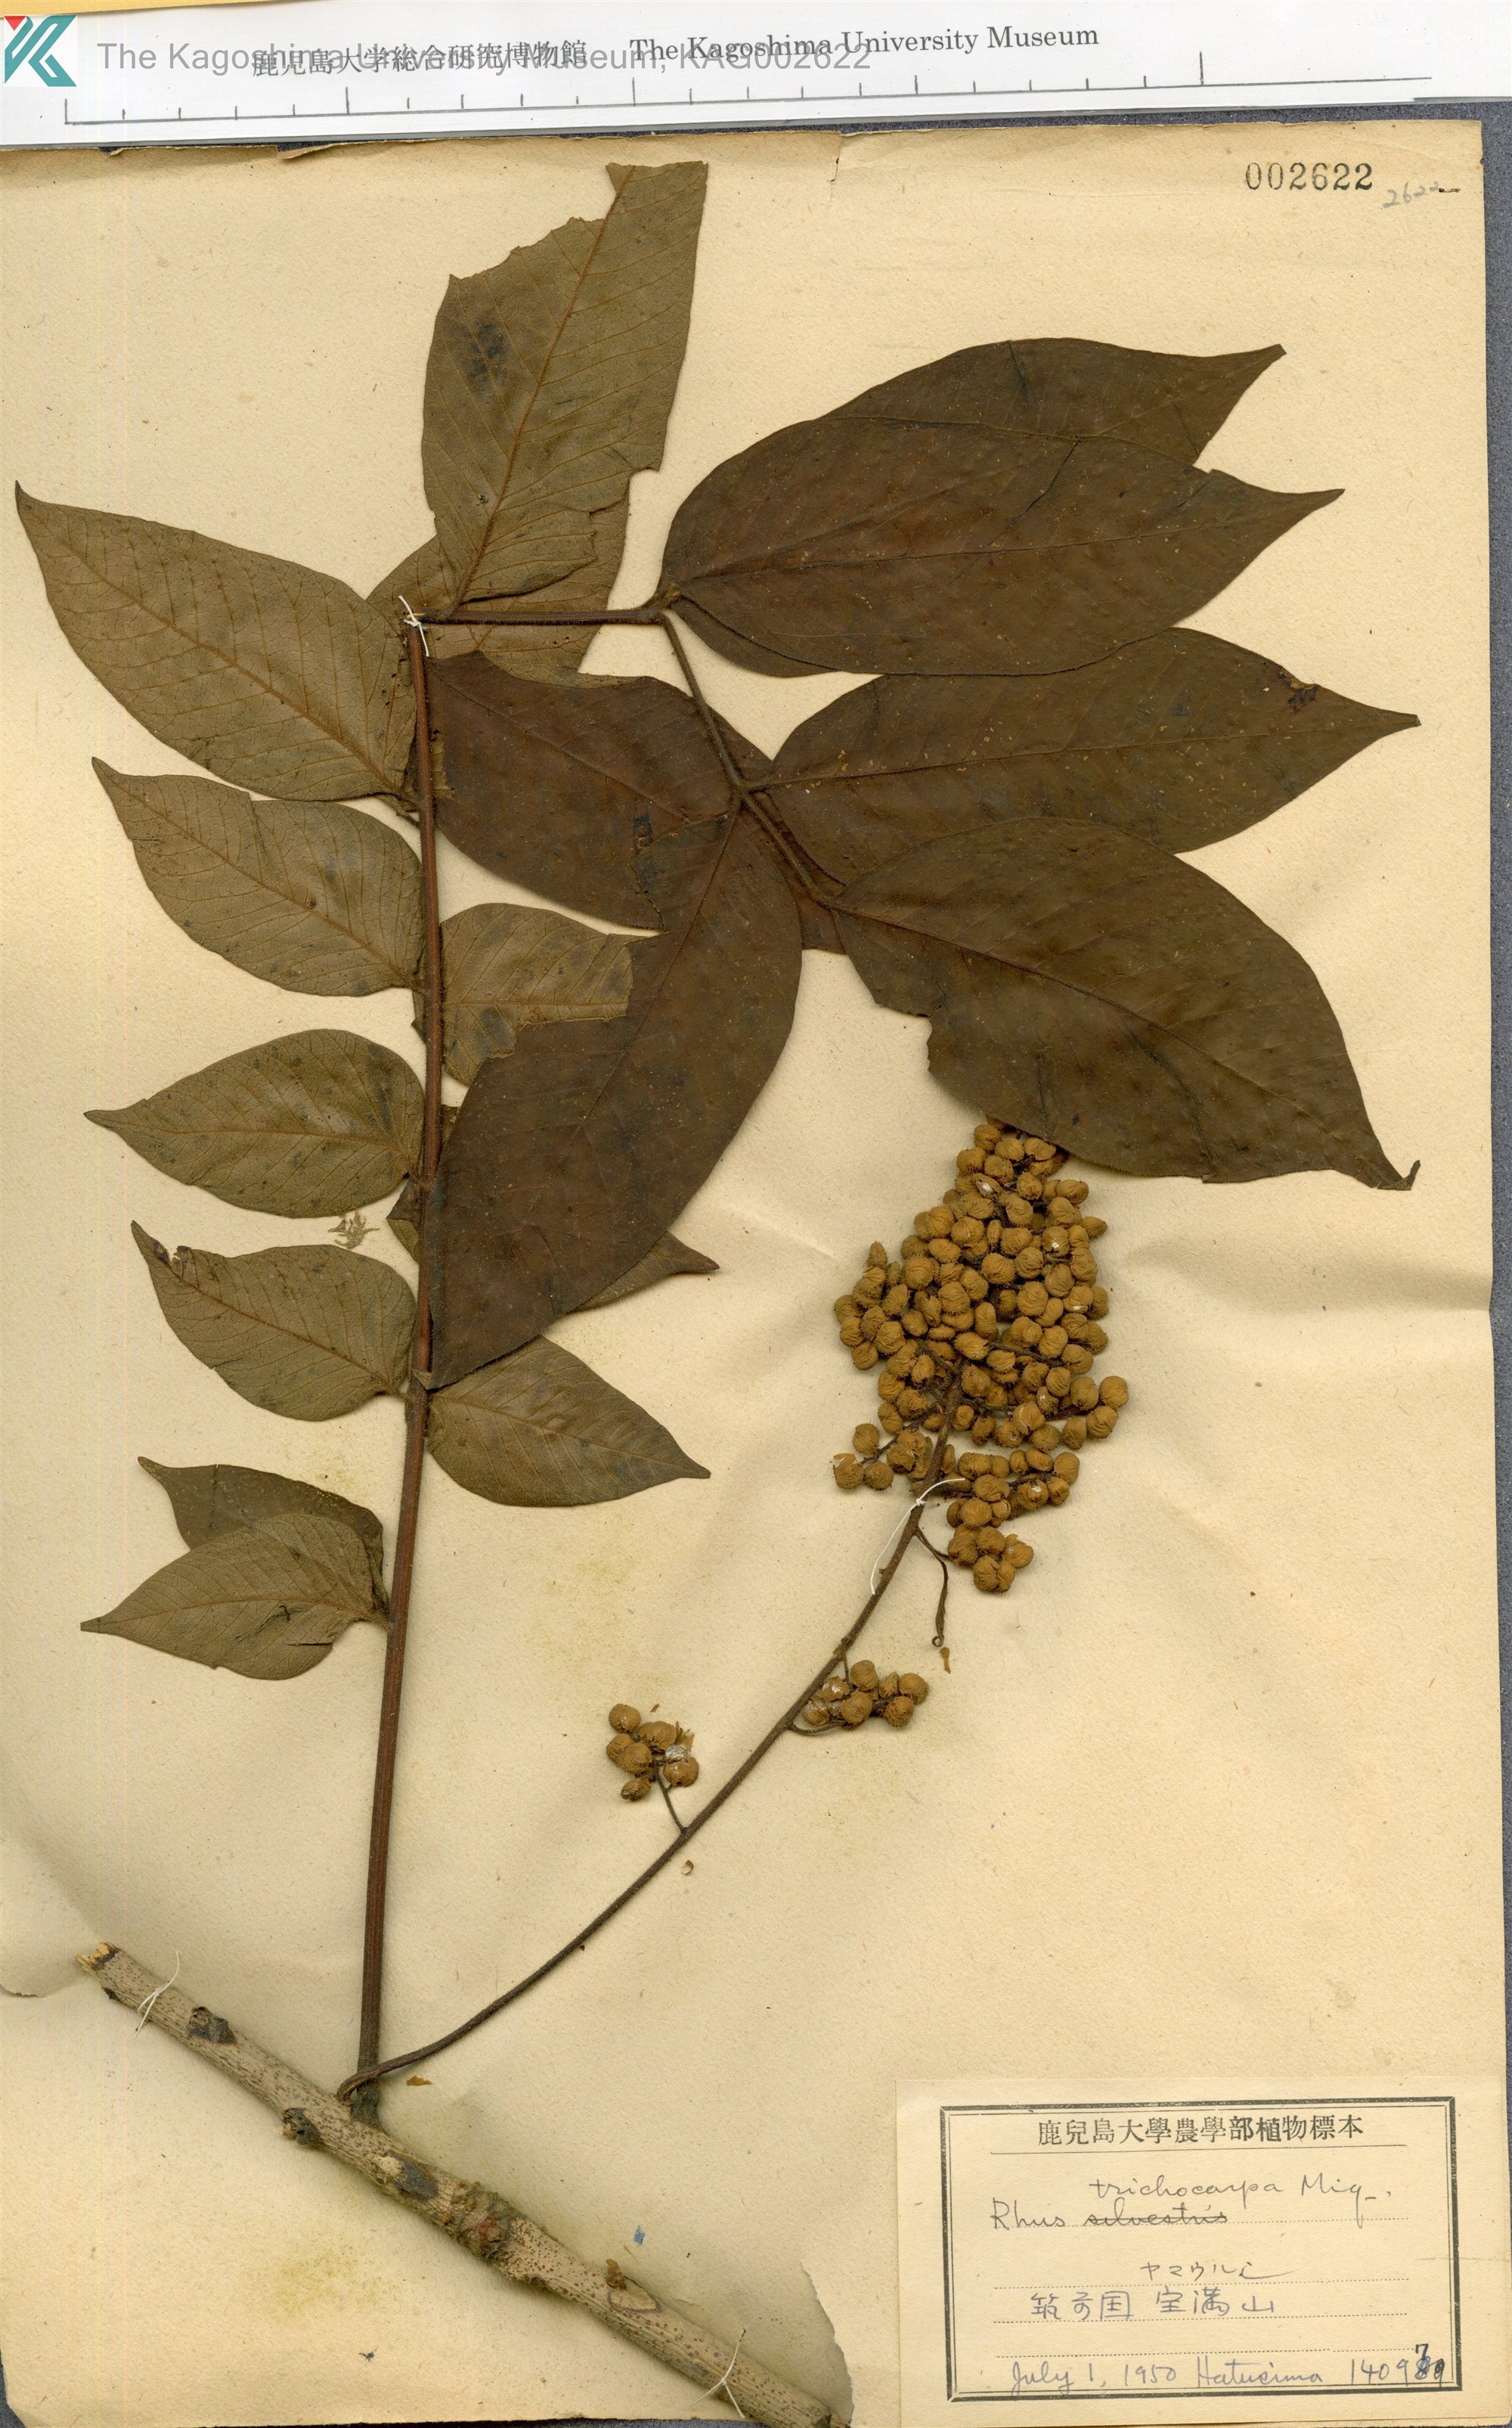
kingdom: Plantae
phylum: Tracheophyta
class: Magnoliopsida
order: Sapindales
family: Anacardiaceae
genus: Toxicodendron
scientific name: Toxicodendron trichocarpum
